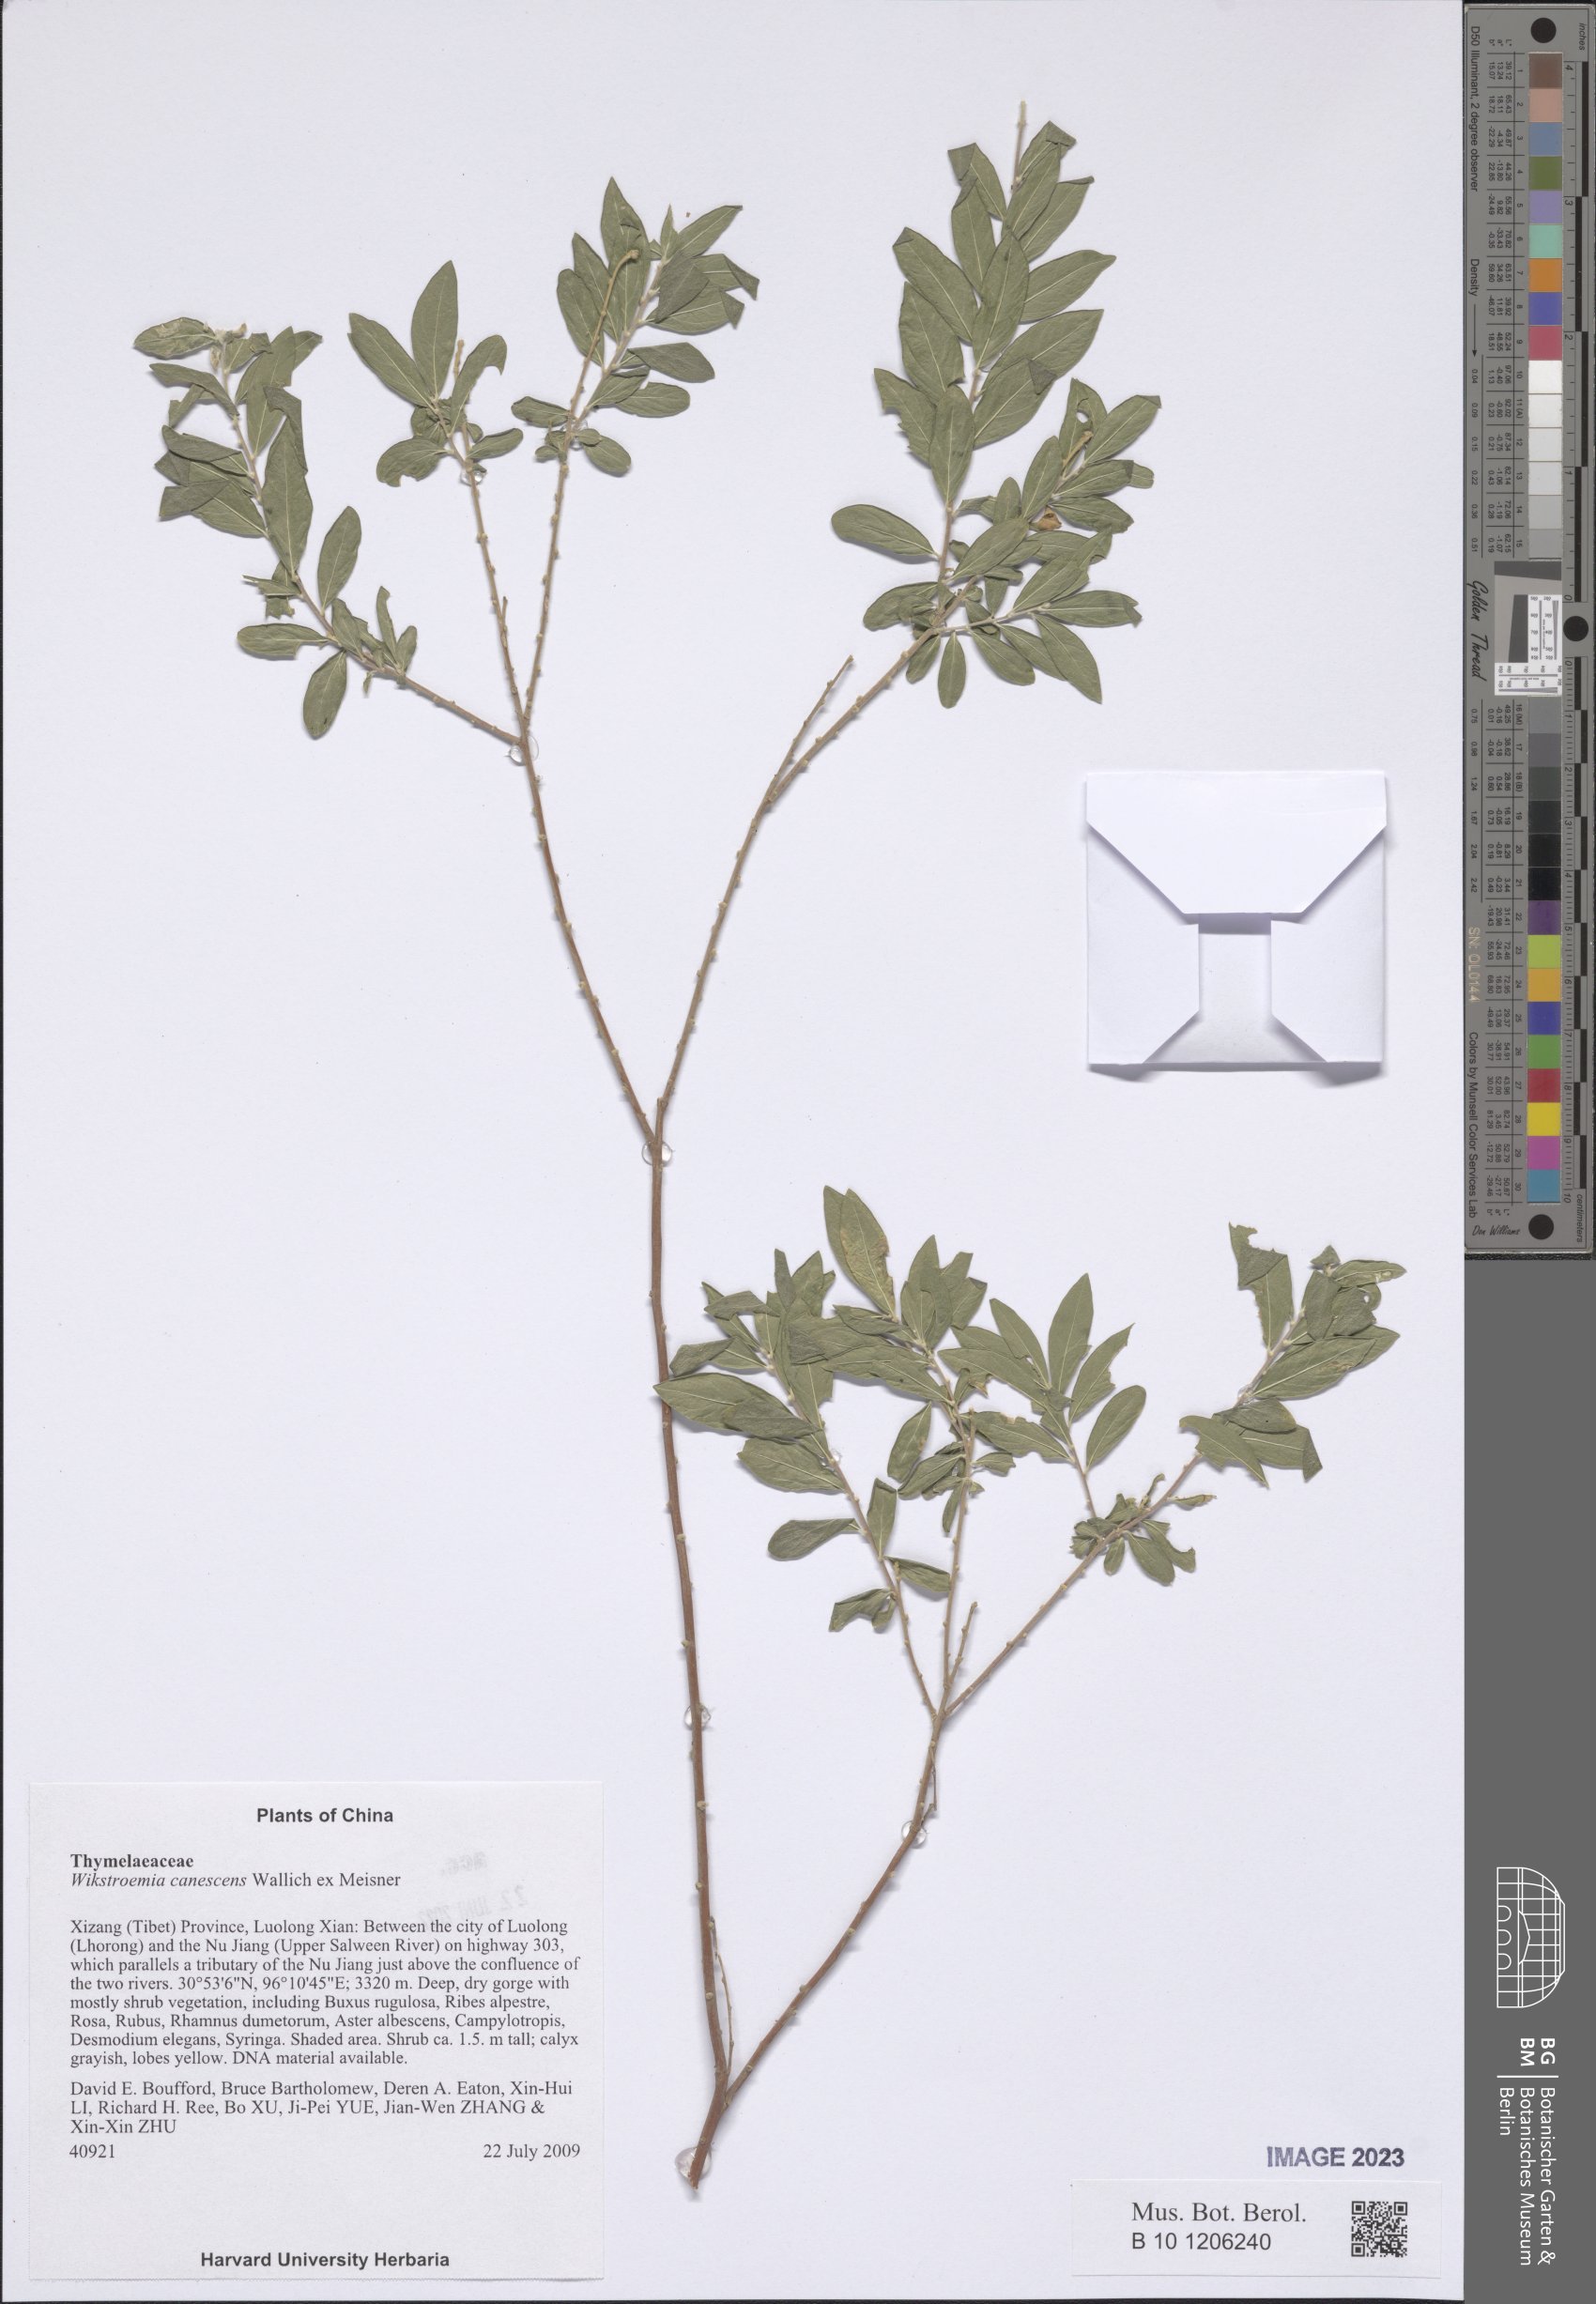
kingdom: Plantae
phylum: Tracheophyta
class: Magnoliopsida
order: Malvales
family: Thymelaeaceae
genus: Wikstroemia
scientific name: Wikstroemia canescens
